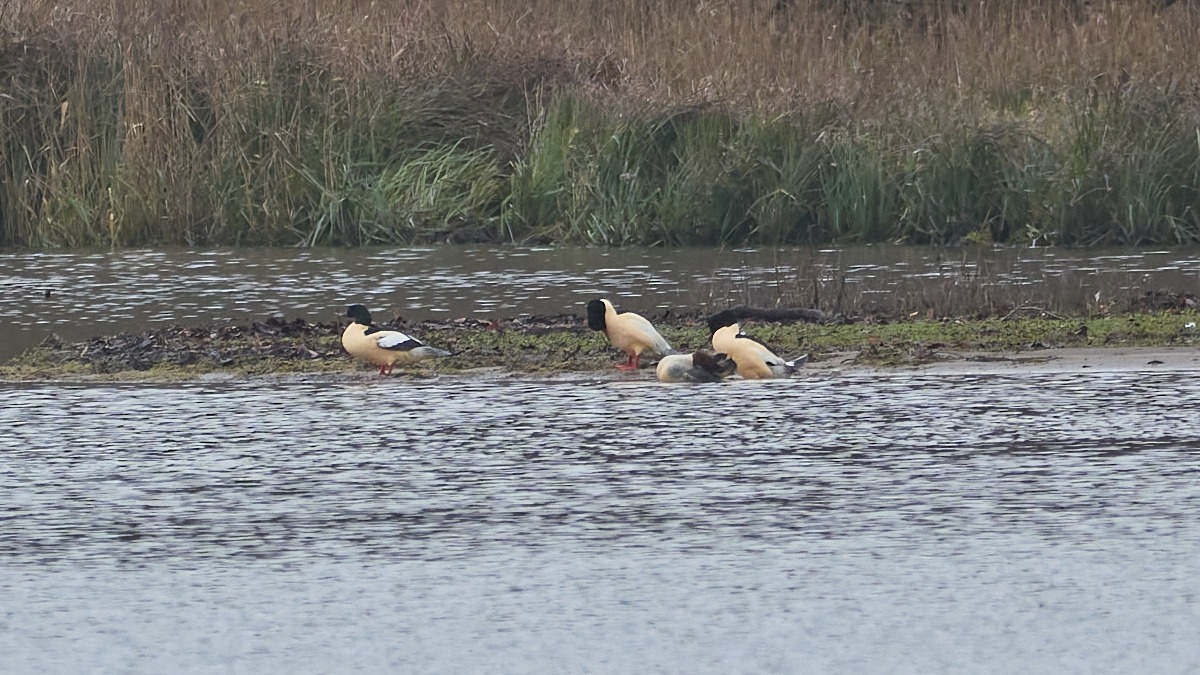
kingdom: Animalia
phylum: Chordata
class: Aves
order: Anseriformes
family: Anatidae
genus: Mergus
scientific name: Mergus merganser
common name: Stor skallesluger
